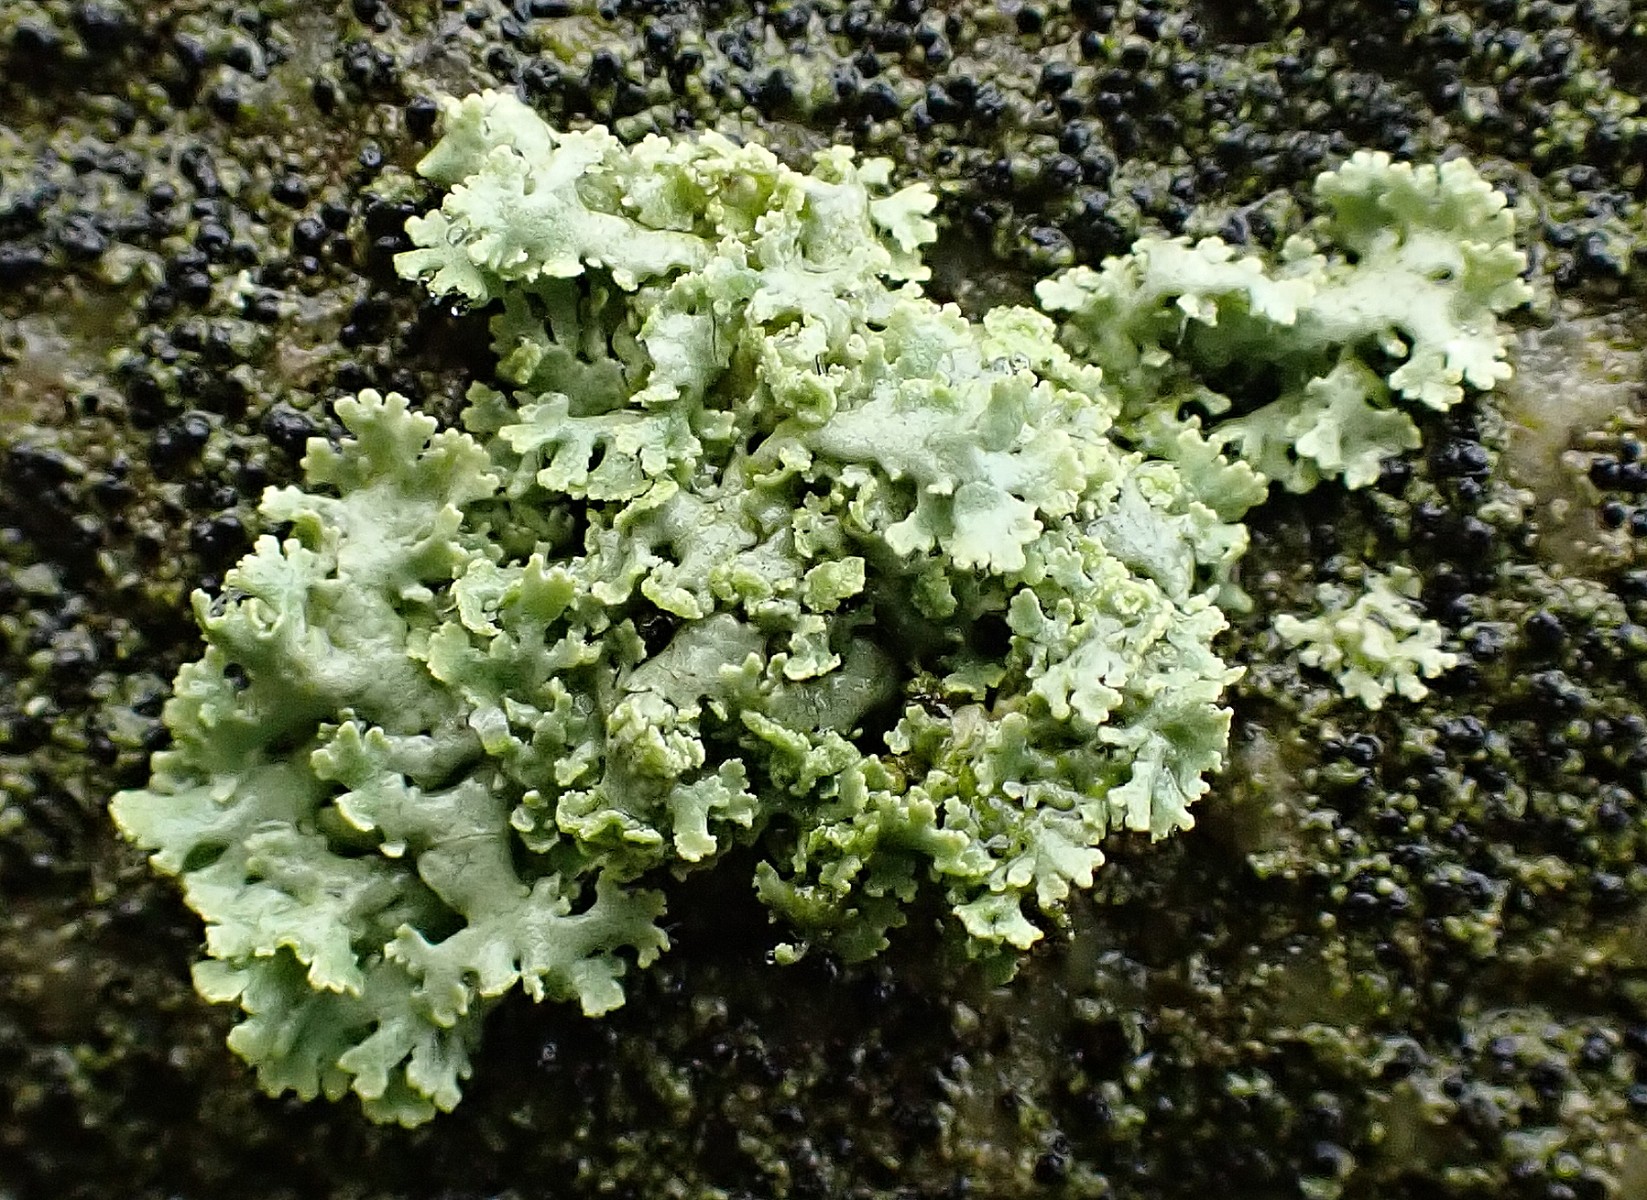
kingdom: Fungi
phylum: Ascomycota
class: Lecanoromycetes
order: Caliciales
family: Physciaceae
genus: Physcia
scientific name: Physcia tenella
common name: spæd rosetlav
